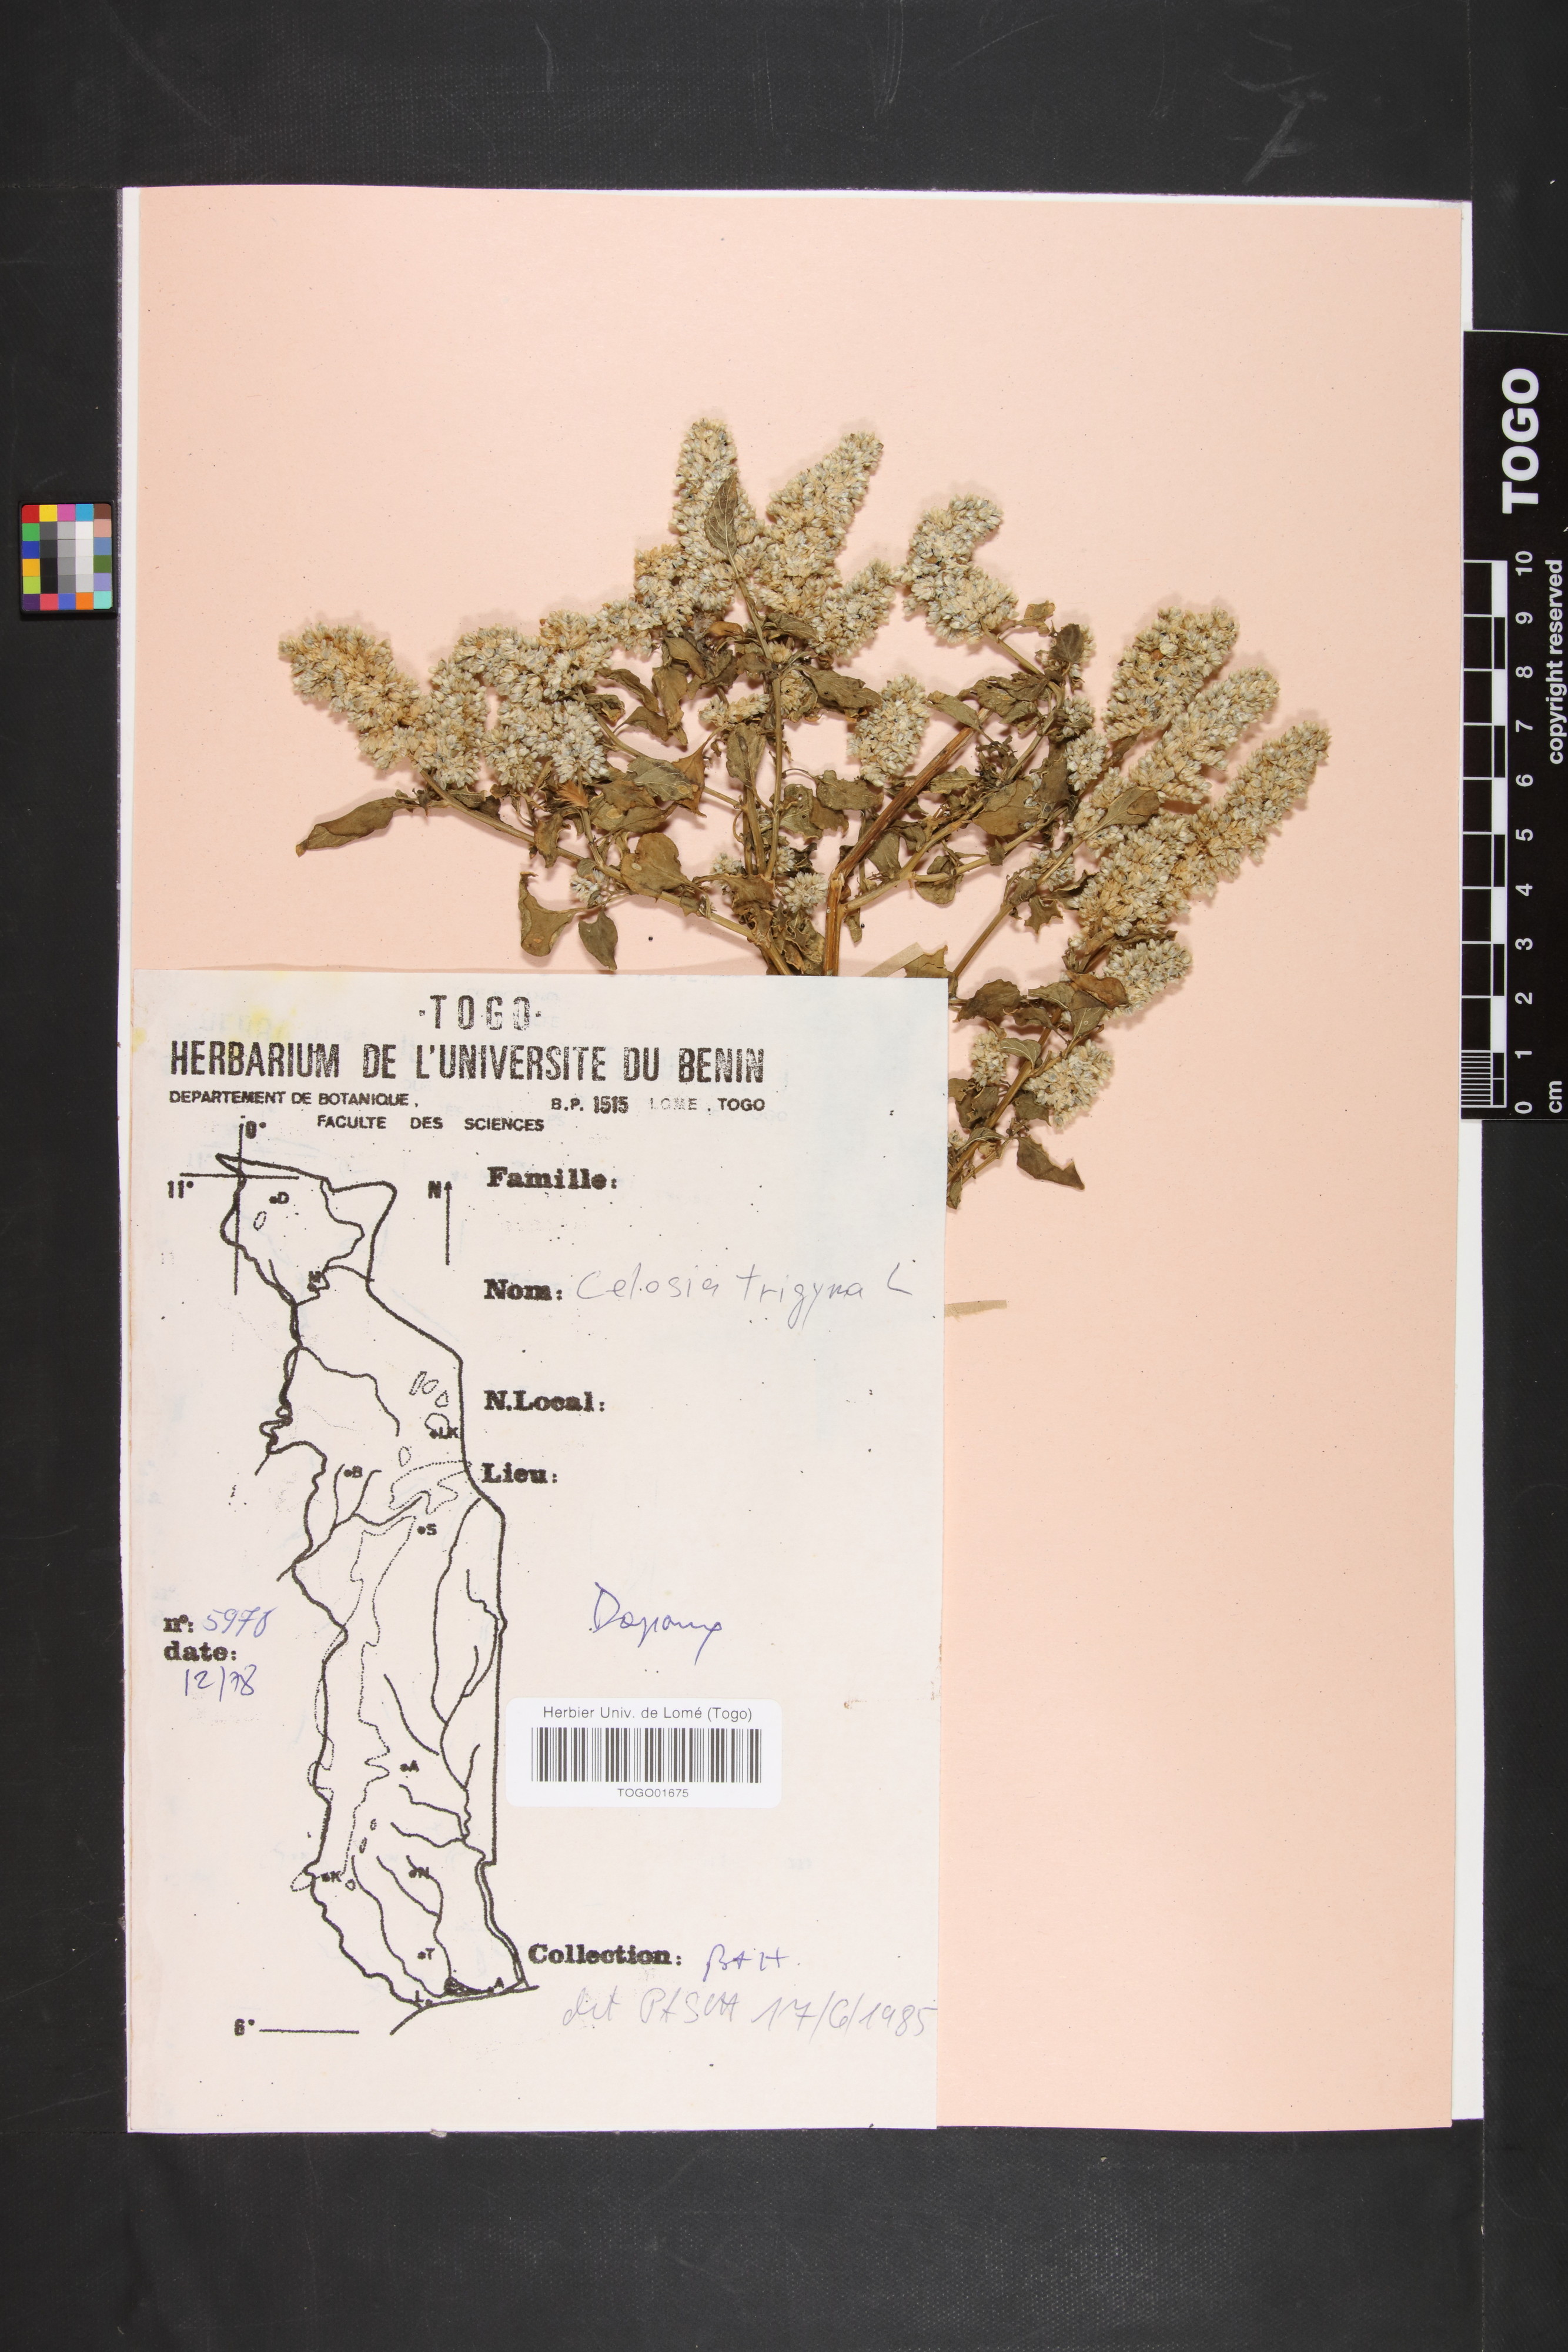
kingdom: Plantae
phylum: Tracheophyta
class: Magnoliopsida
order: Caryophyllales
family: Amaranthaceae
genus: Celosia
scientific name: Celosia trigyna
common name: Woolflower
